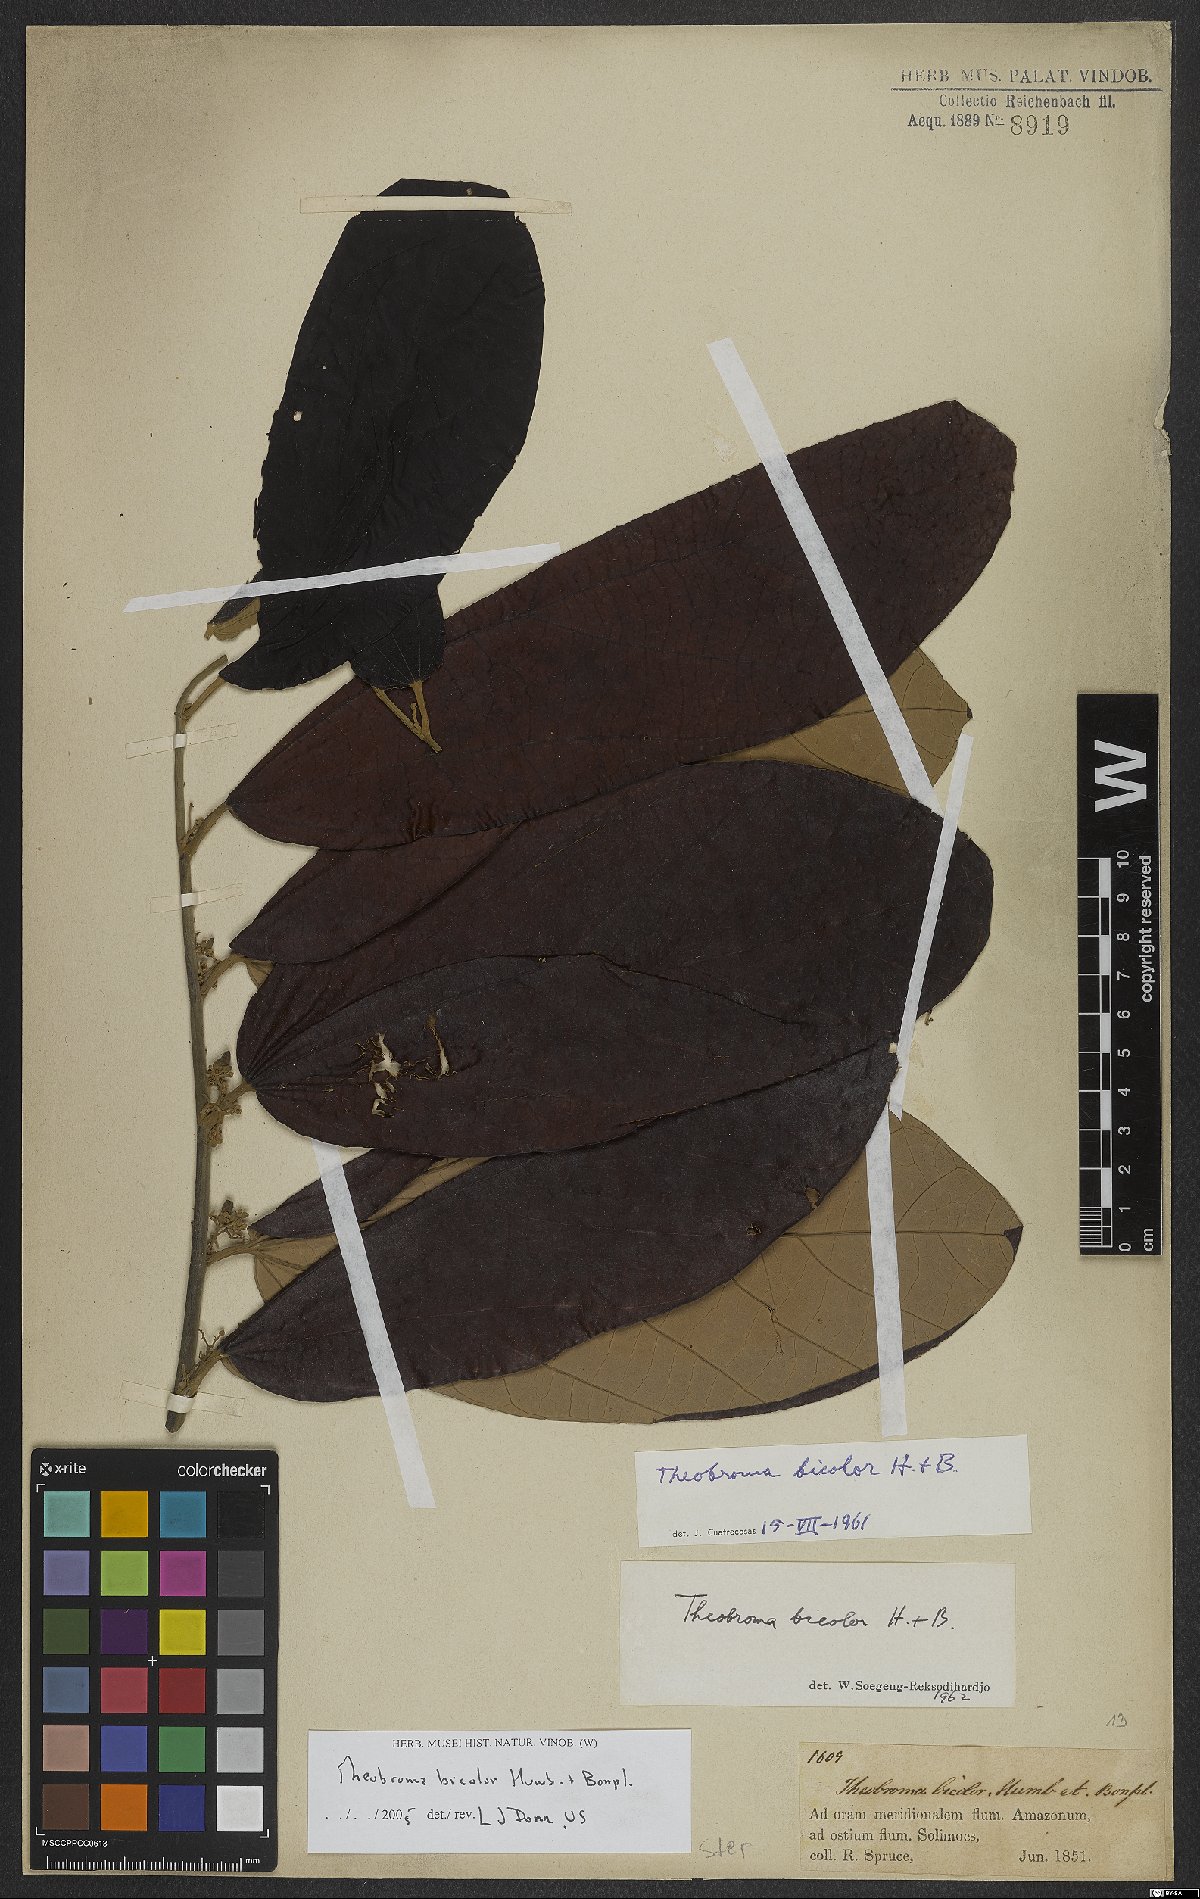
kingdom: Plantae
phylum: Tracheophyta
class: Magnoliopsida
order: Malvales
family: Malvaceae
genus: Theobroma
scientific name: Theobroma bicolor
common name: Macambo tree
